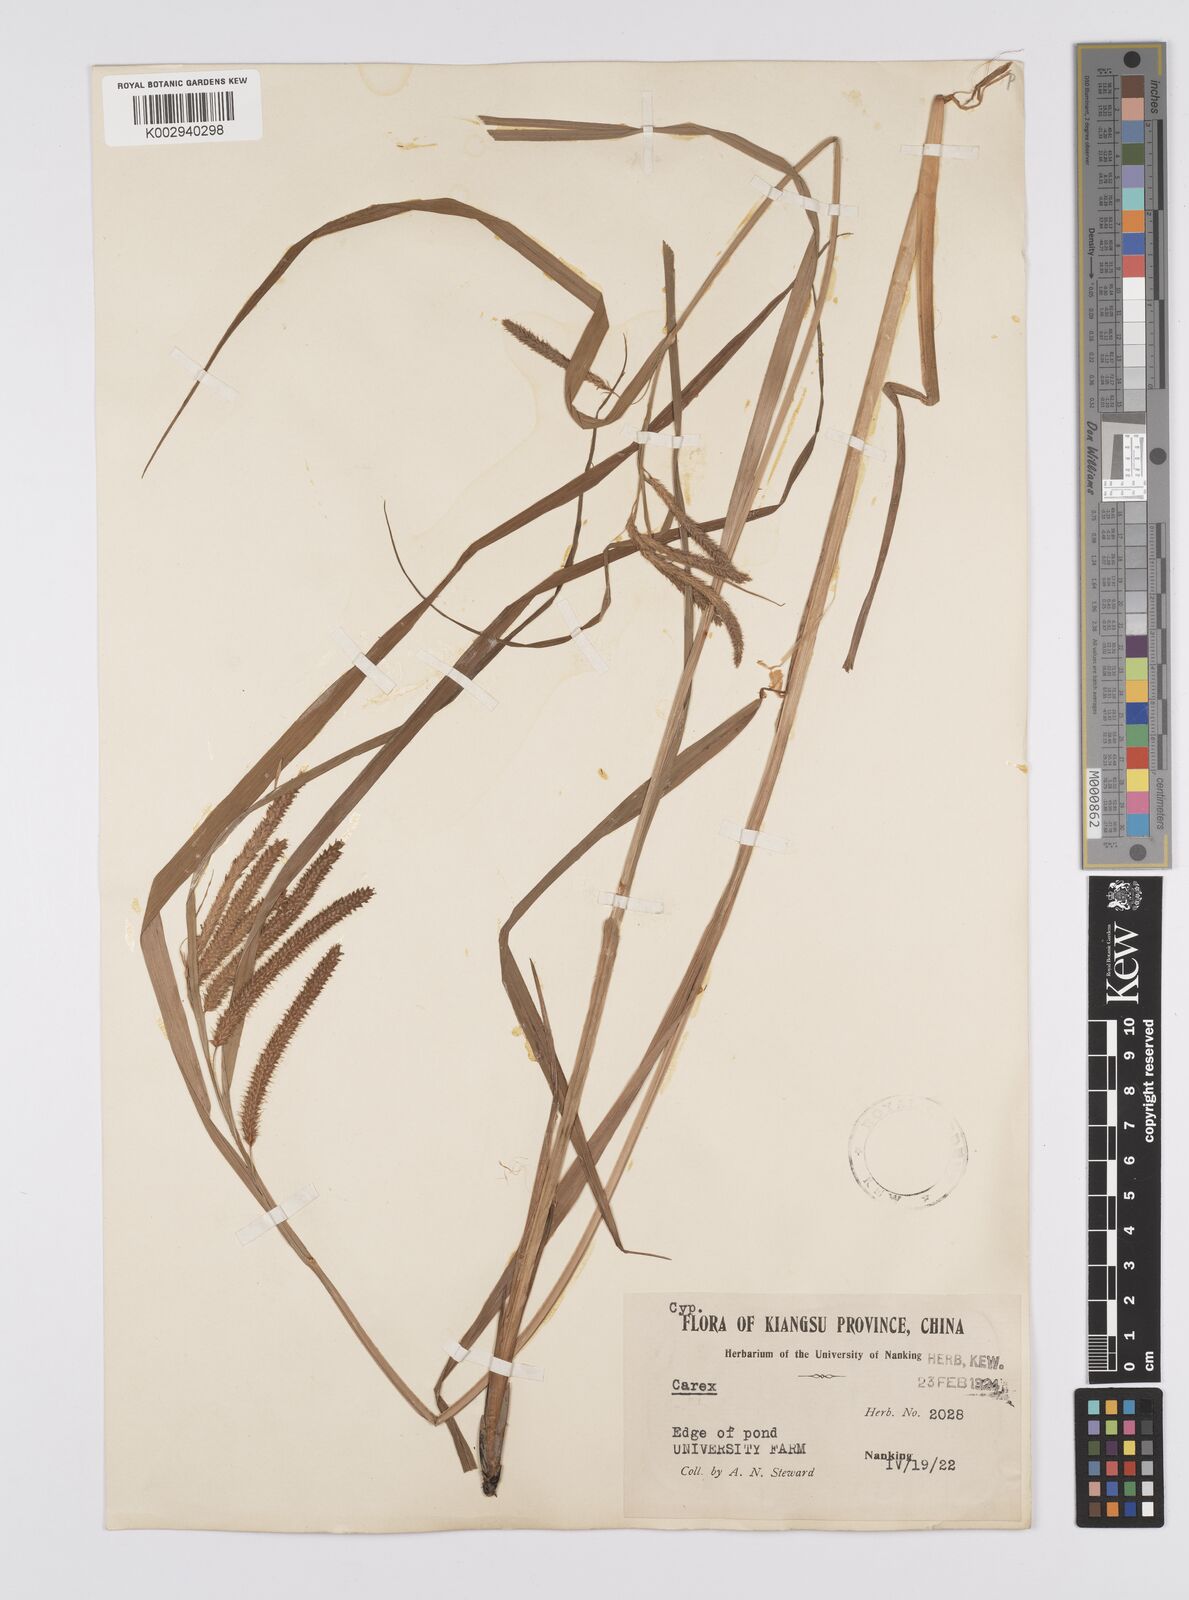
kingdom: Plantae
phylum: Tracheophyta
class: Liliopsida
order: Poales
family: Cyperaceae
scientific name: Cyperaceae
